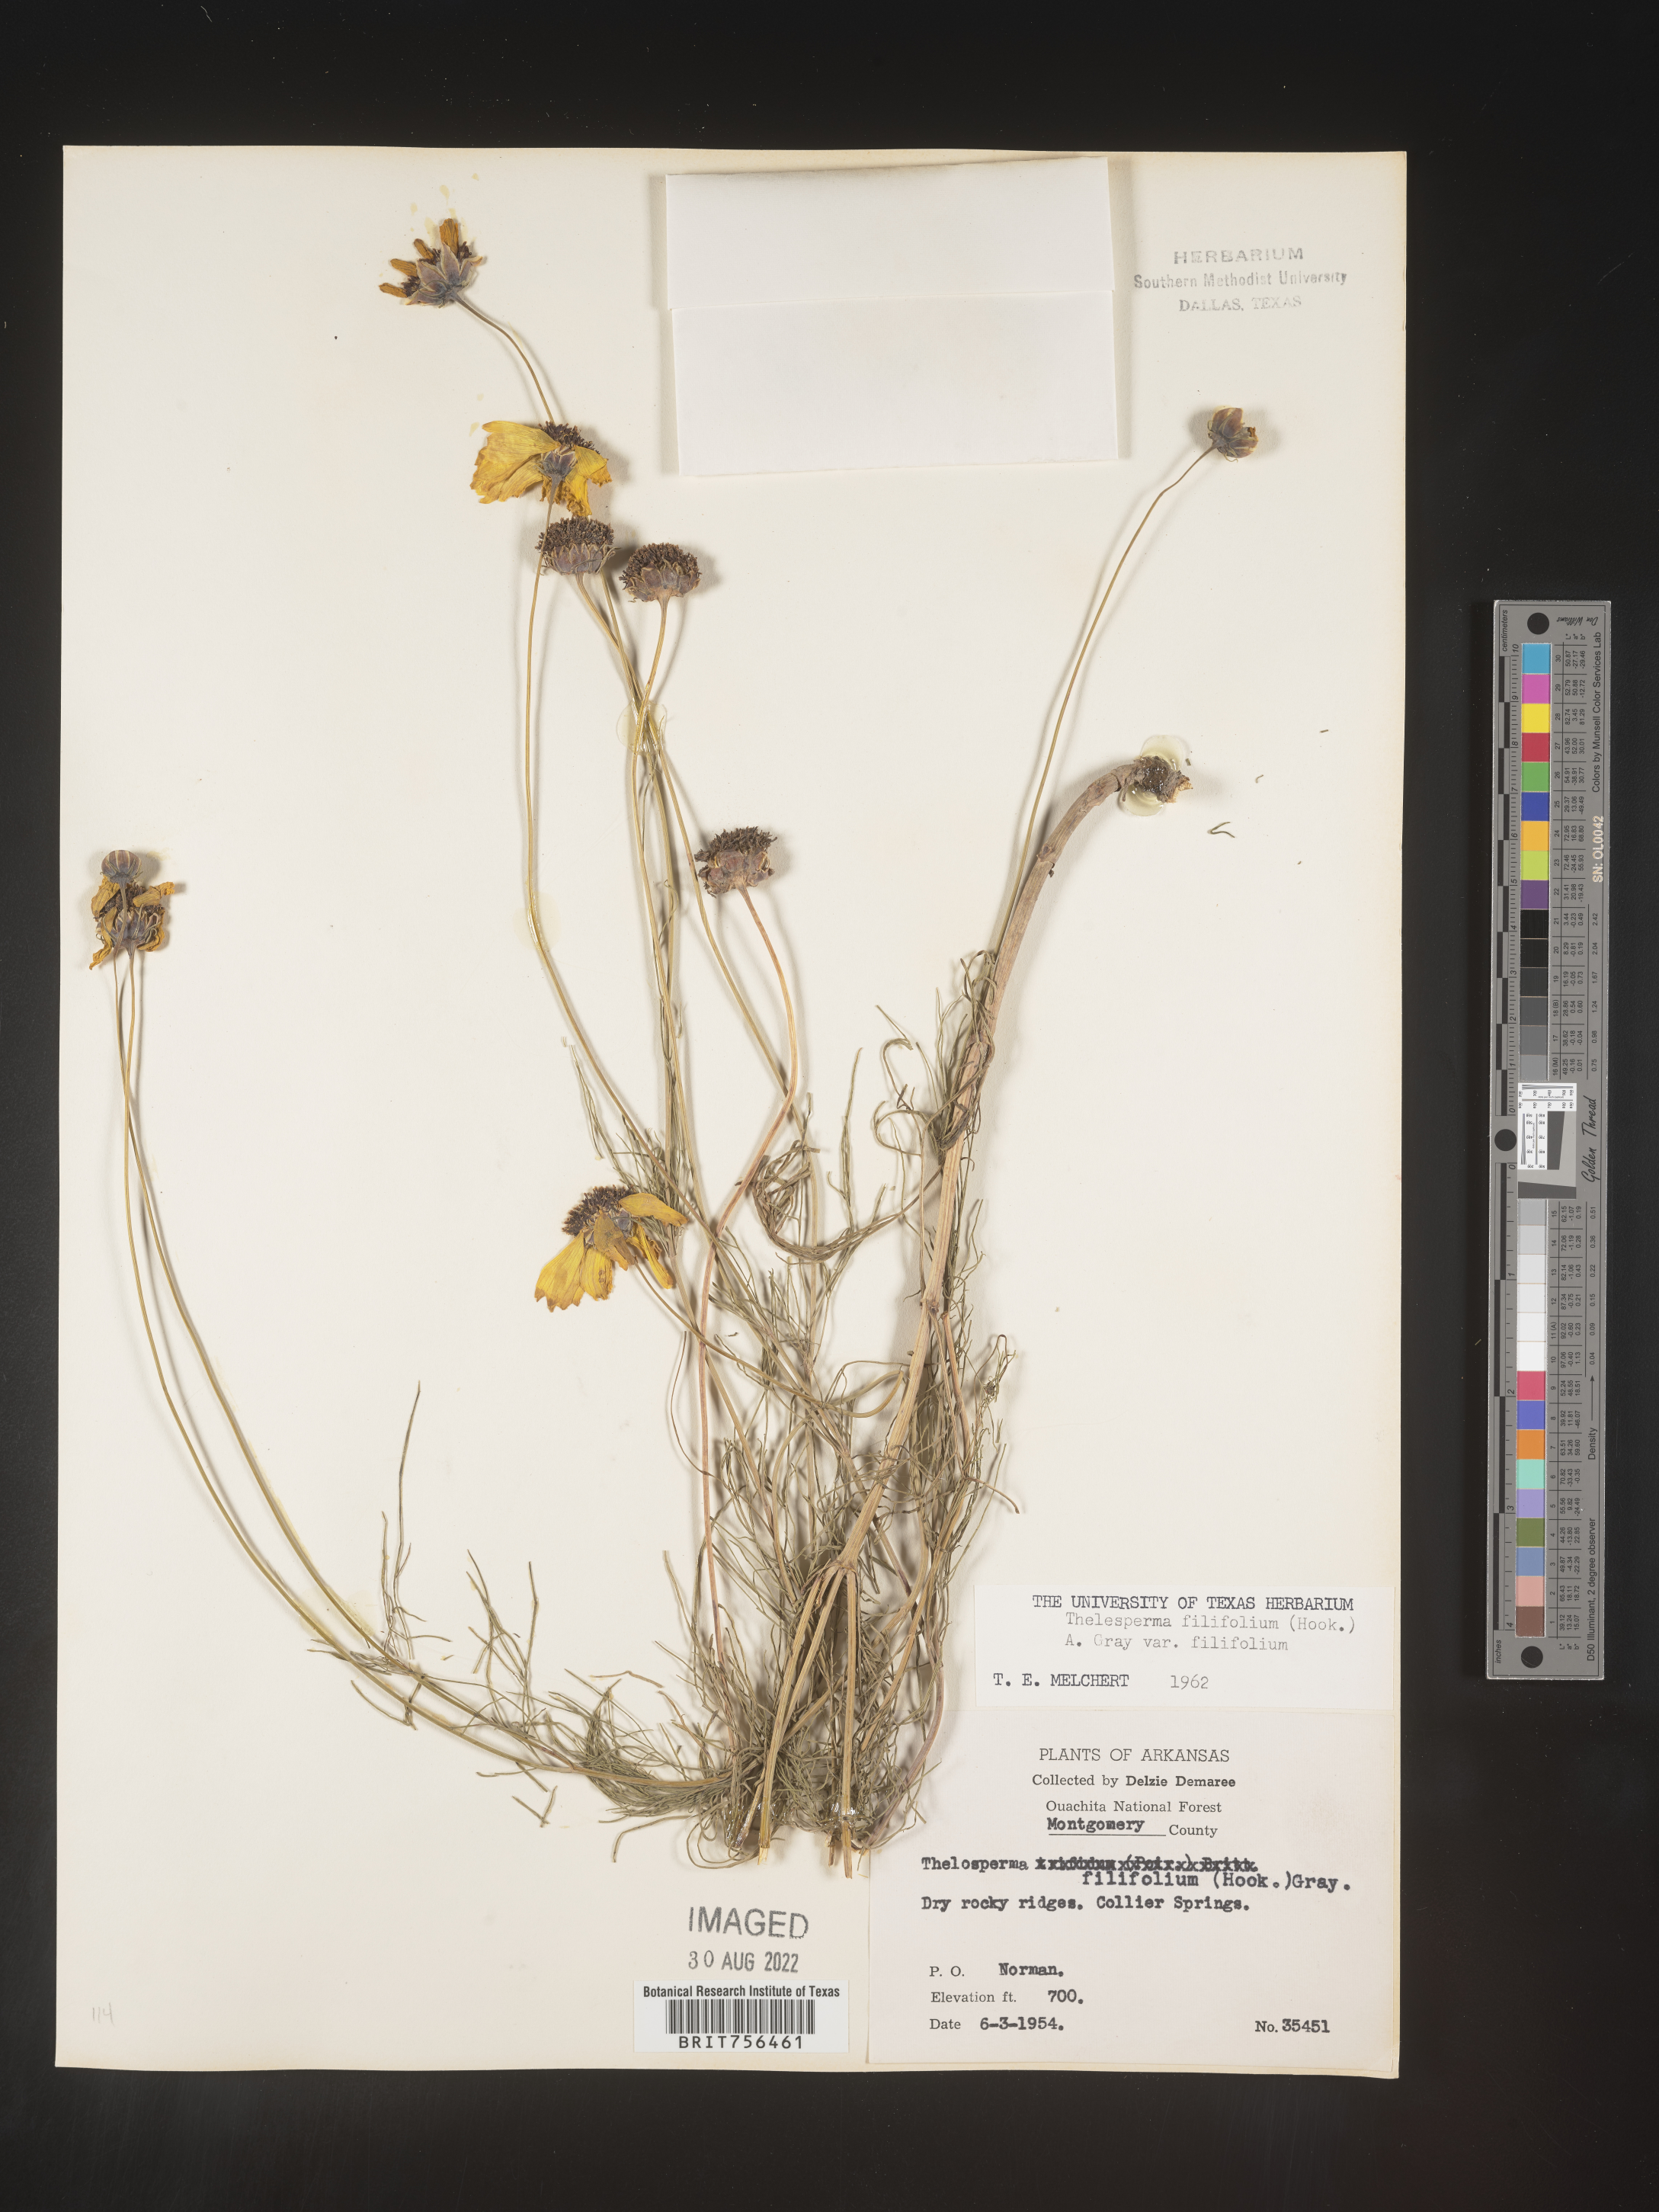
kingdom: Plantae
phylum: Tracheophyta
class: Magnoliopsida
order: Asterales
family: Asteraceae
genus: Thelesperma
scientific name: Thelesperma filifolium
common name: Stiff greenthread
